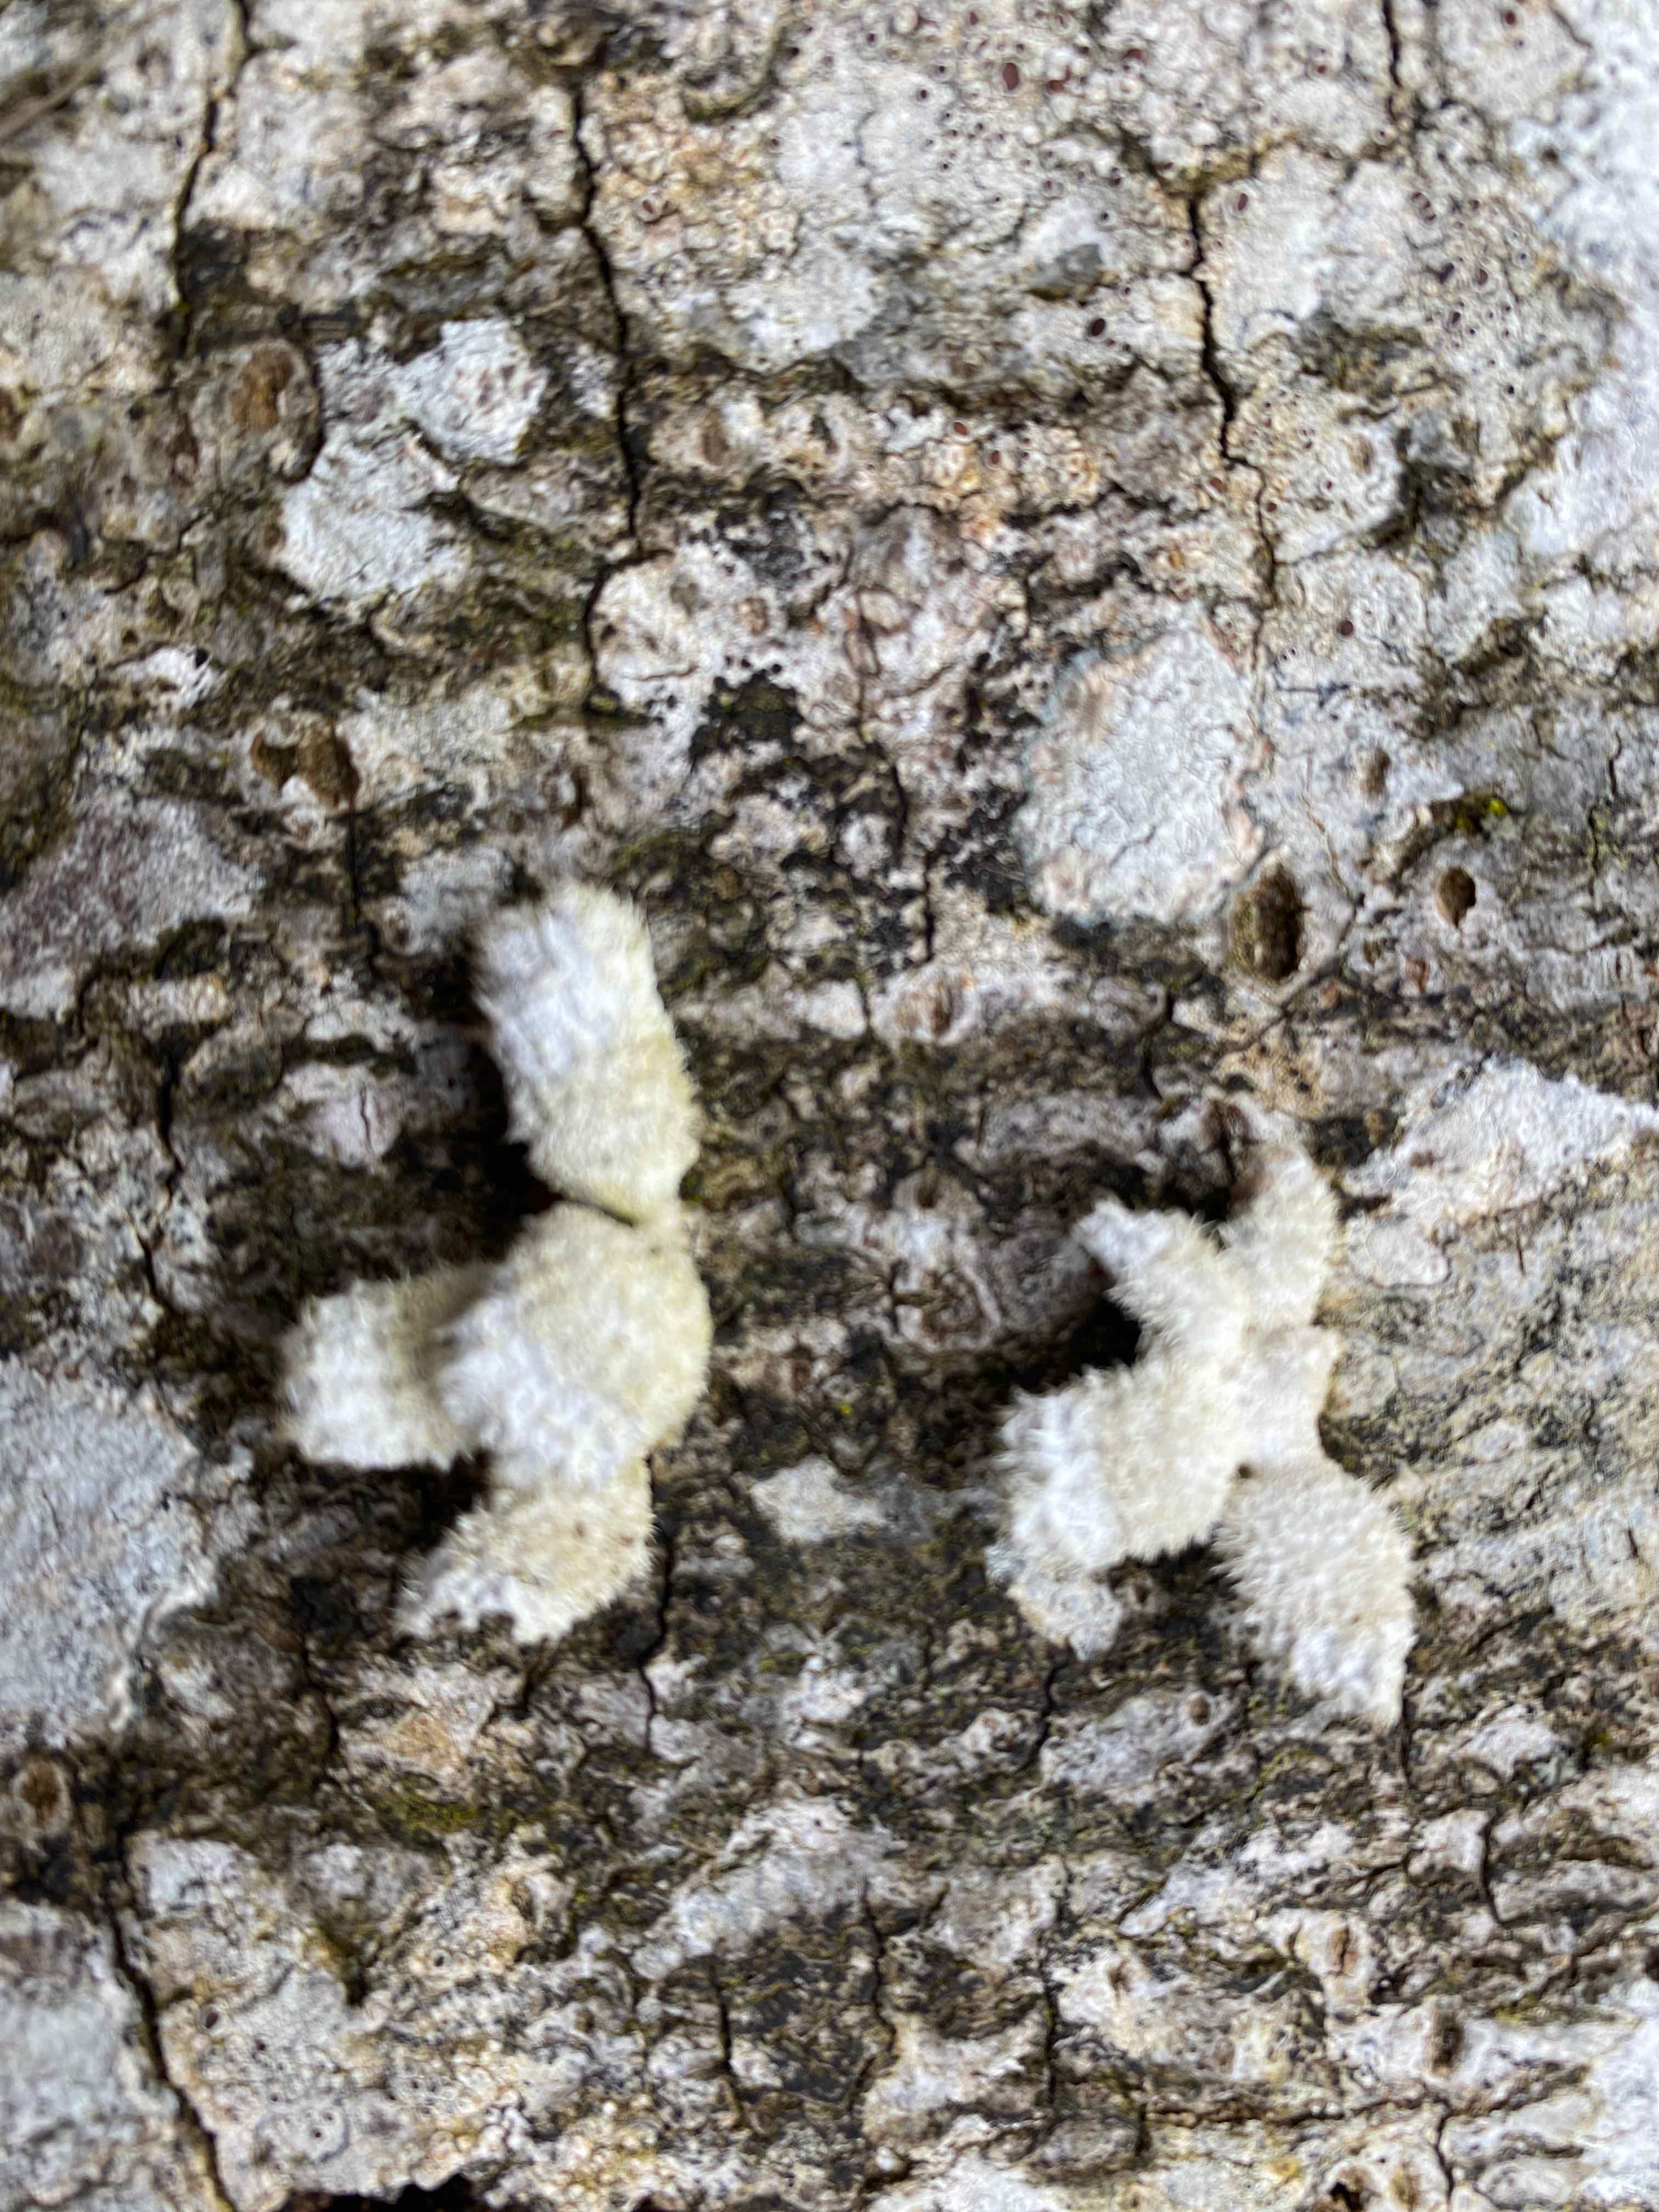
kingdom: Fungi
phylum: Basidiomycota
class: Agaricomycetes
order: Agaricales
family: Schizophyllaceae
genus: Schizophyllum
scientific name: Schizophyllum commune
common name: kløvblad
